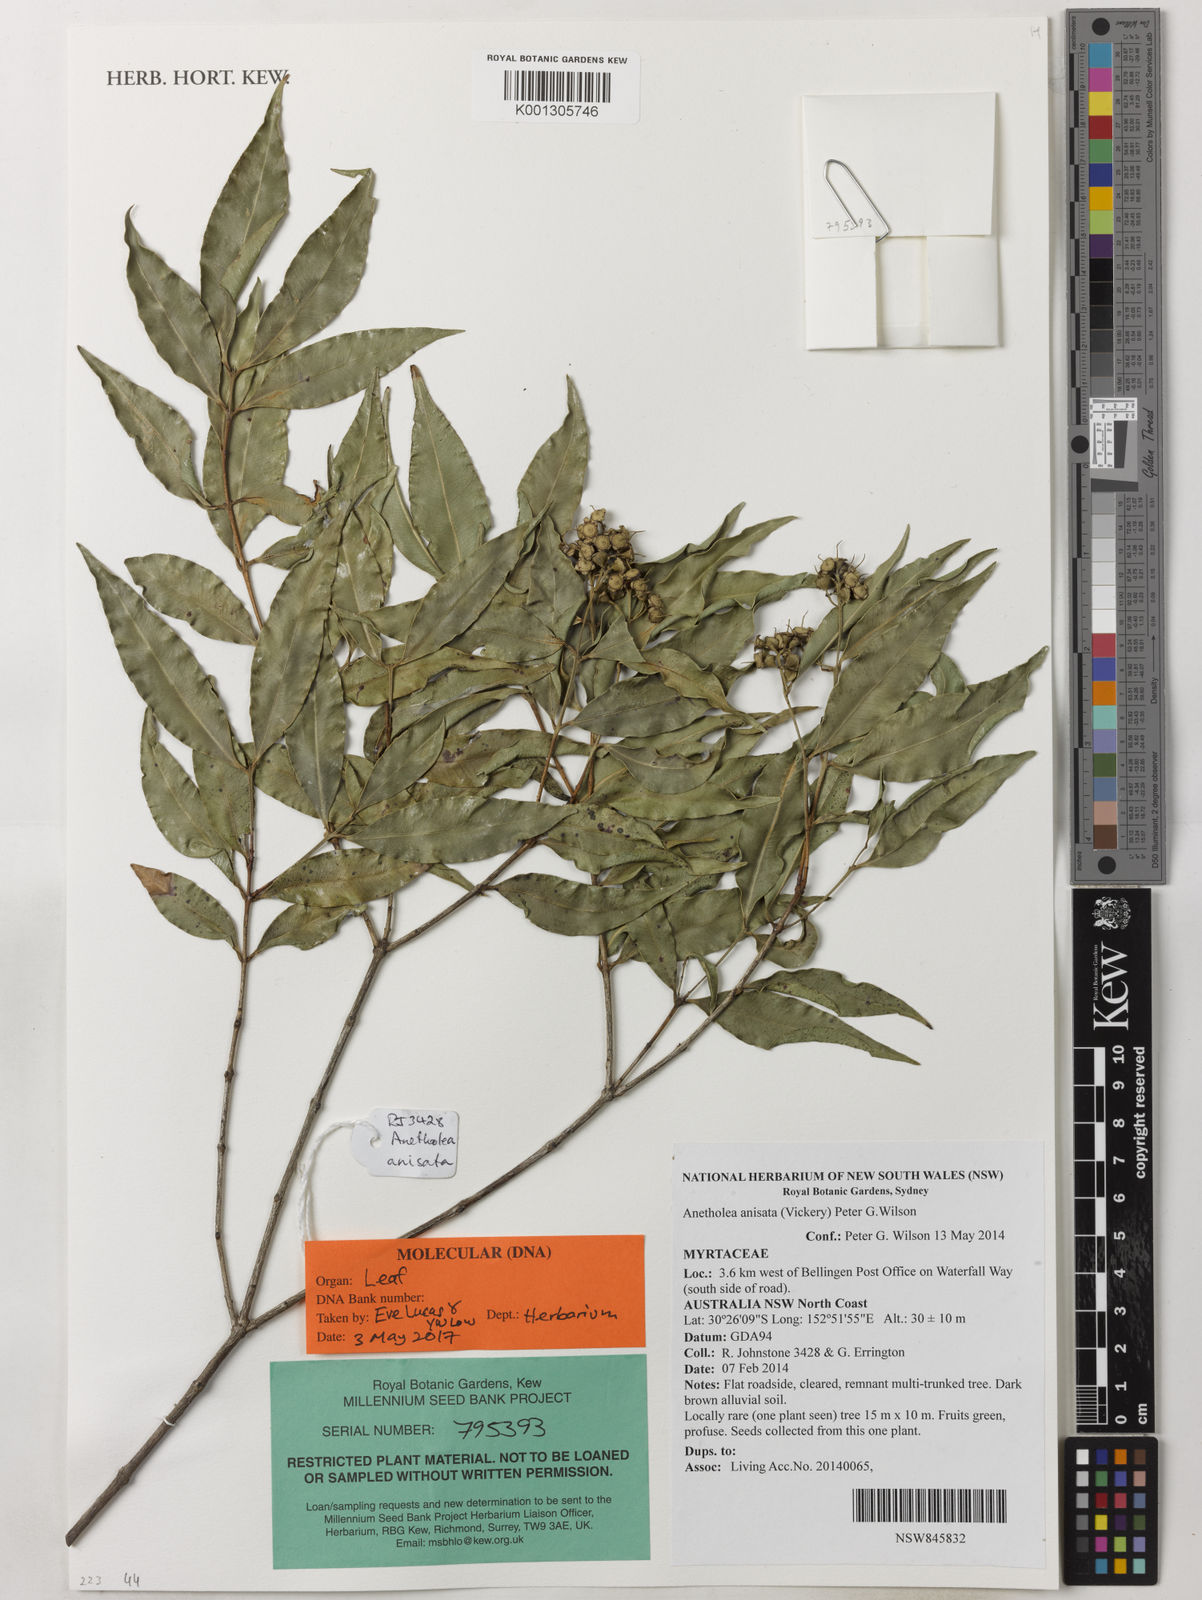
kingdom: Plantae
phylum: Tracheophyta
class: Magnoliopsida
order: Myrtales
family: Myrtaceae
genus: Syzygium
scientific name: Syzygium anisatum
